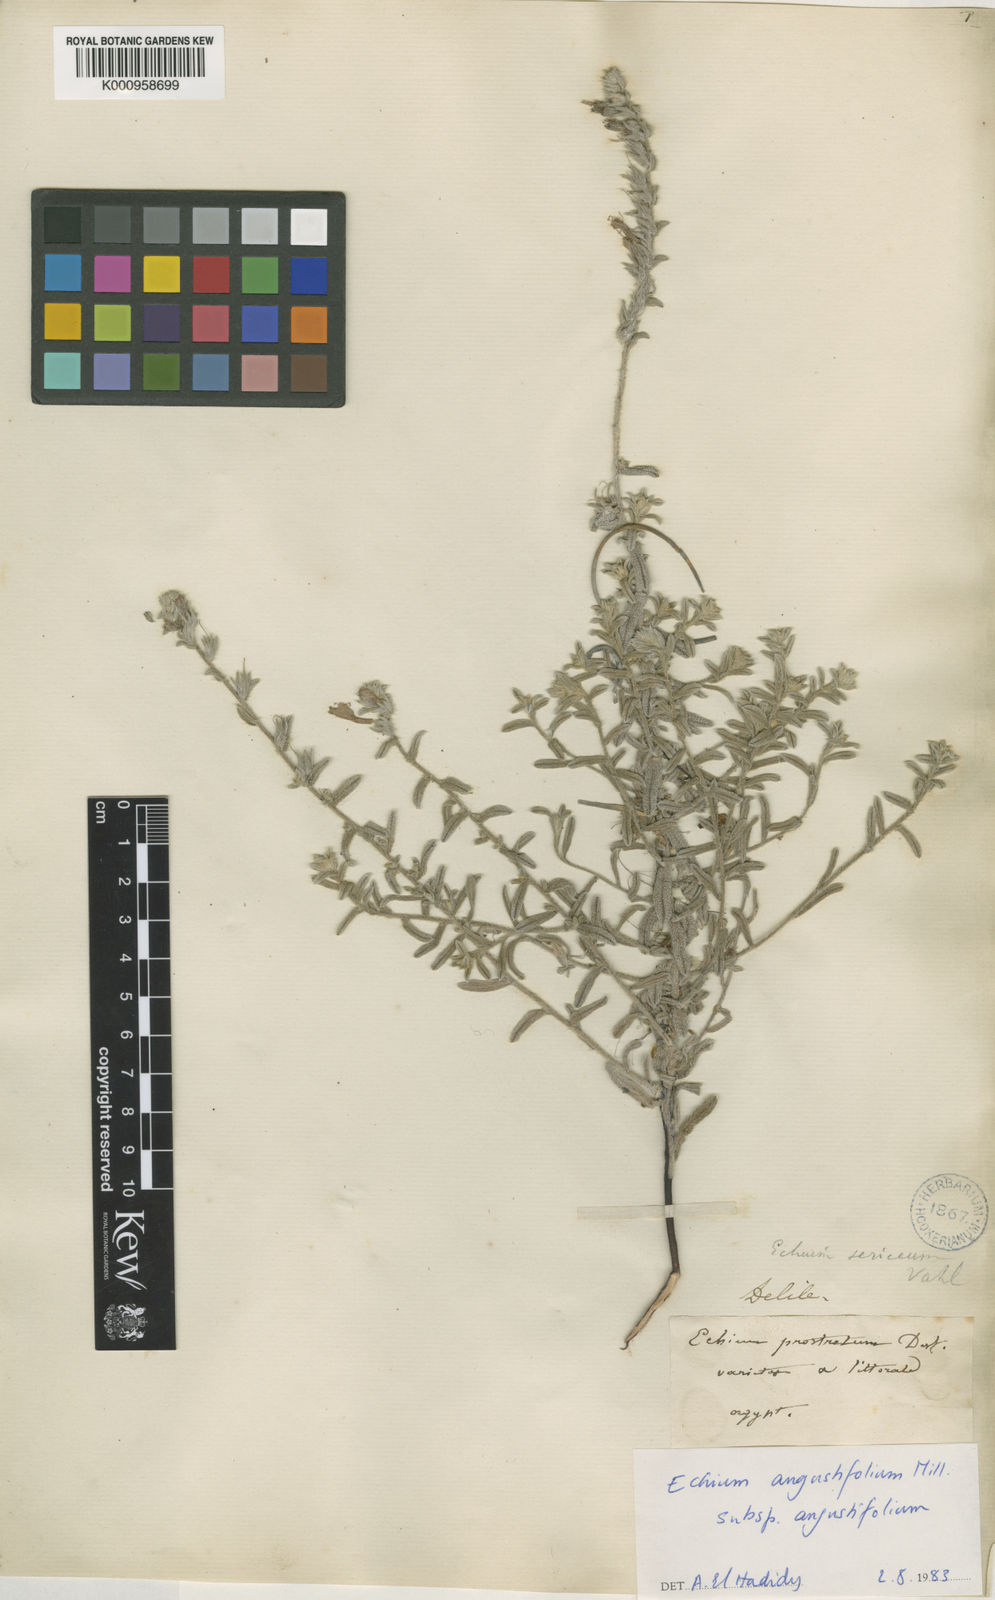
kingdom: Plantae
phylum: Tracheophyta
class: Magnoliopsida
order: Boraginales
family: Boraginaceae
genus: Echium
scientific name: Echium angustifolium
